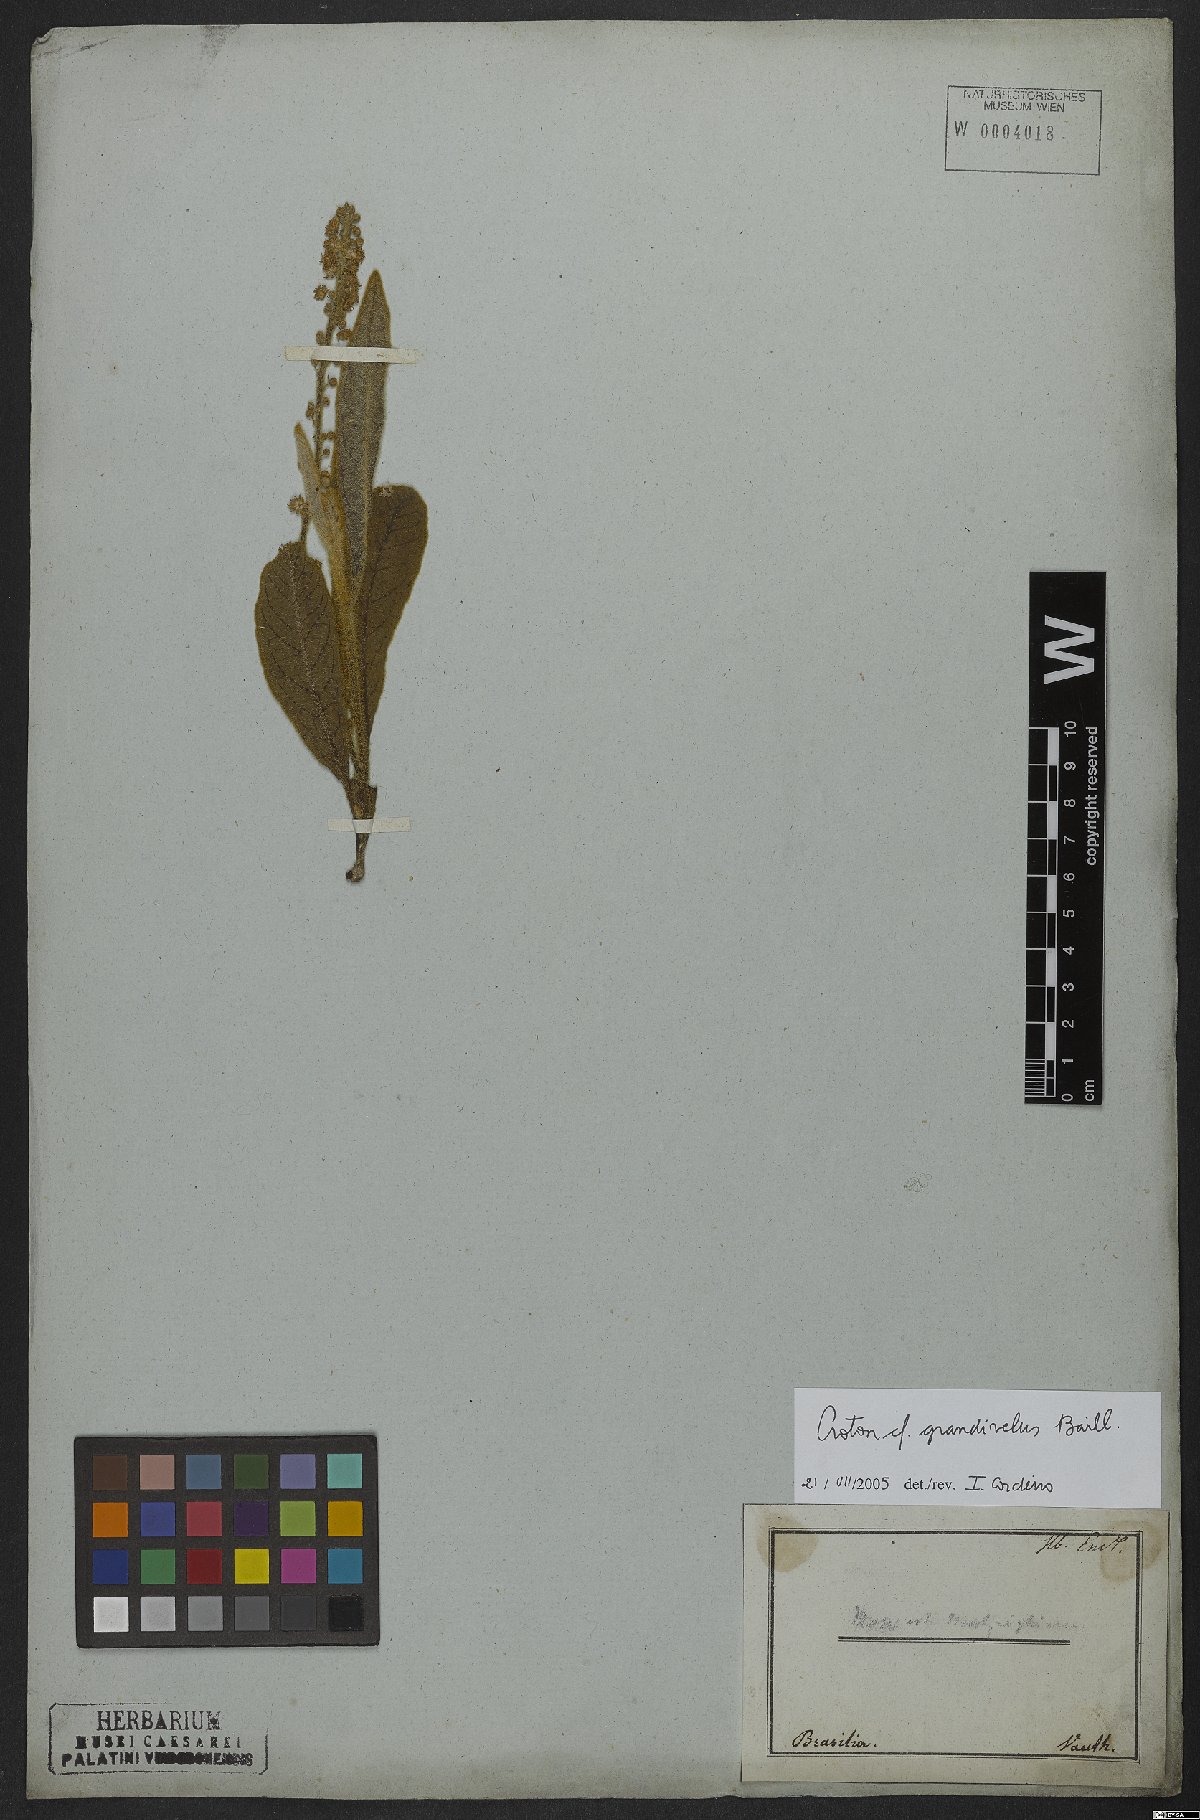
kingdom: Plantae
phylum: Tracheophyta
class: Magnoliopsida
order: Malpighiales
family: Euphorbiaceae
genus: Croton
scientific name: Croton grandivelum
